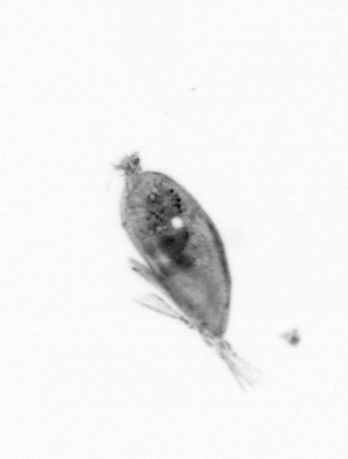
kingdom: Animalia
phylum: Arthropoda
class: Maxillopoda
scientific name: Maxillopoda
